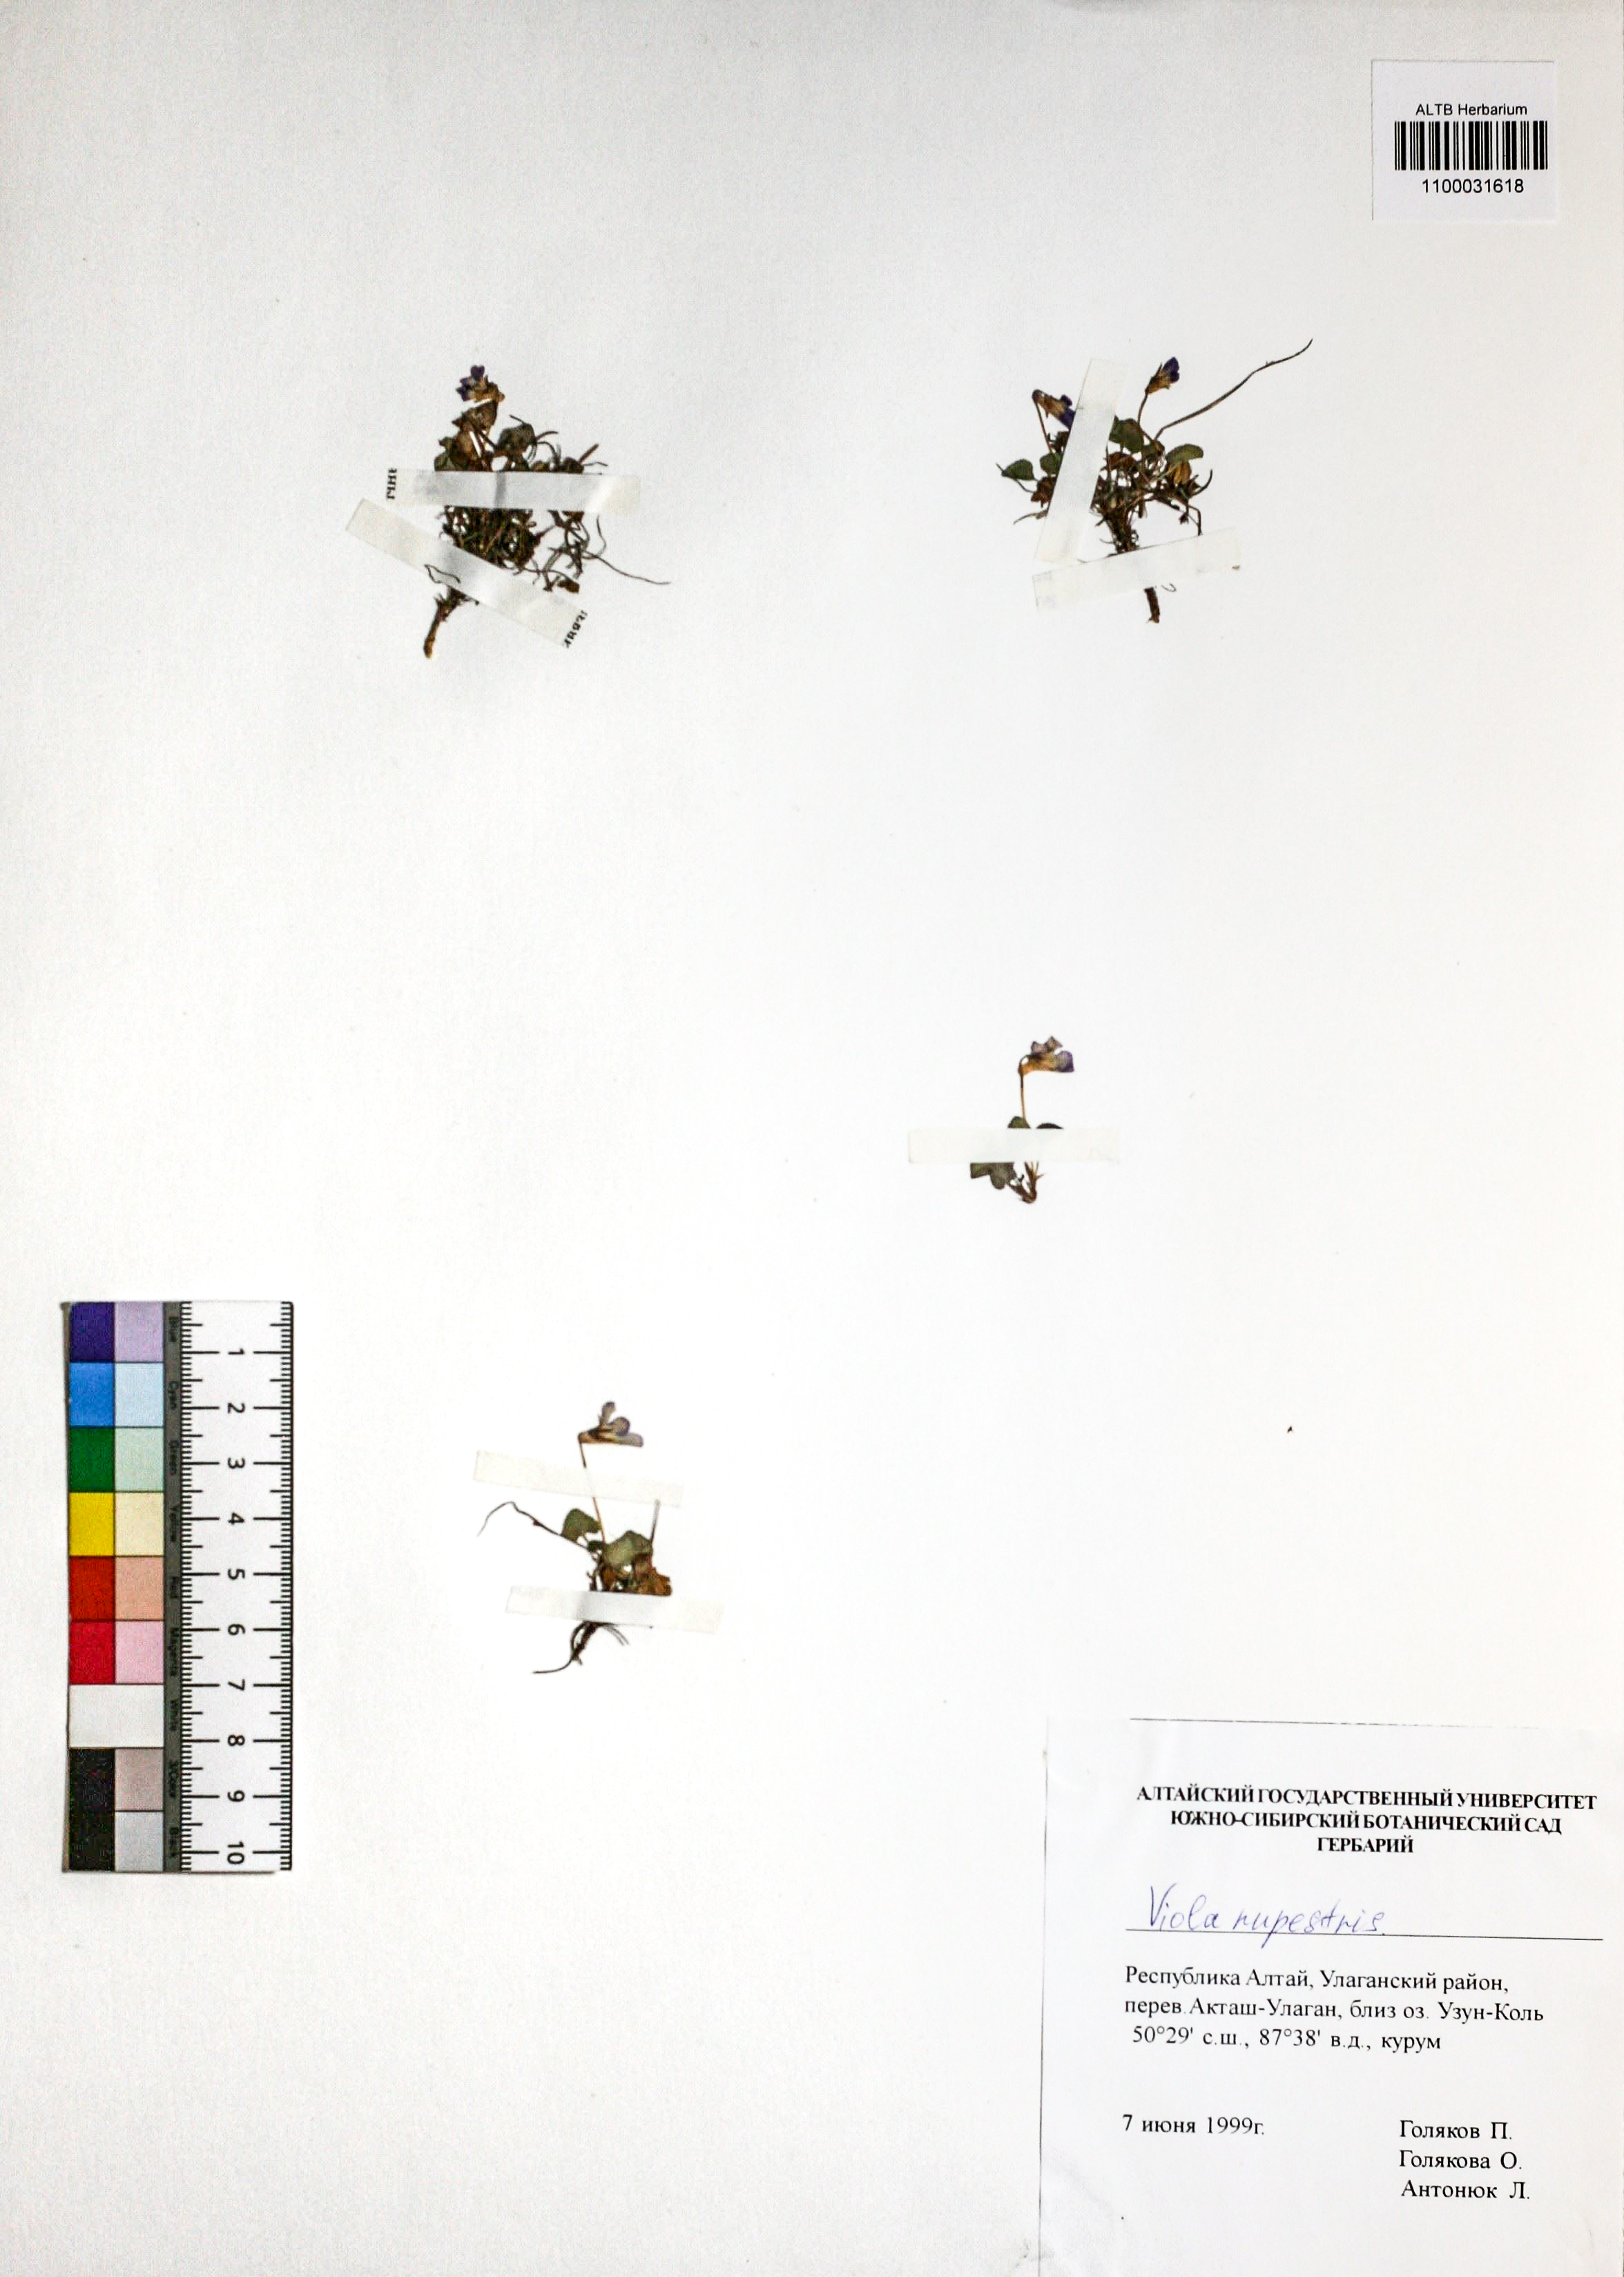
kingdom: Plantae
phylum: Tracheophyta
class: Magnoliopsida
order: Malpighiales
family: Violaceae
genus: Viola
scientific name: Viola rupestris
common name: Teesdale violet
